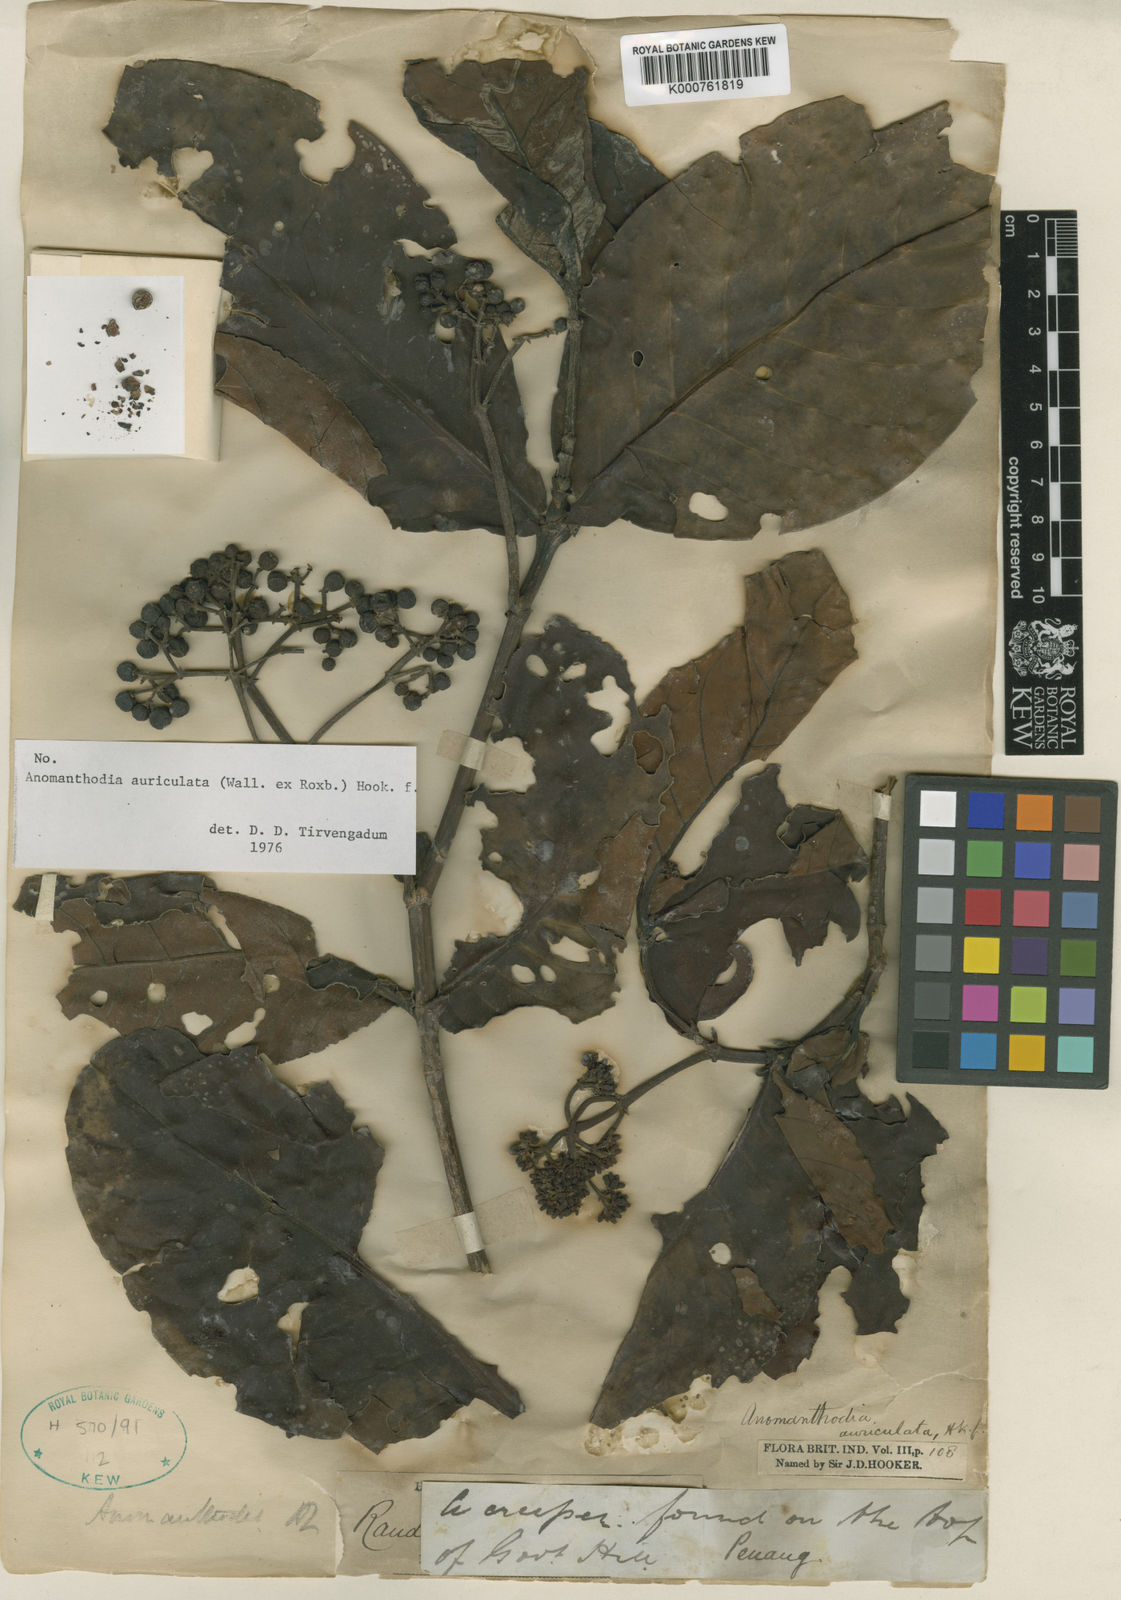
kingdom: Plantae
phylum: Tracheophyta
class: Magnoliopsida
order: Gentianales
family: Rubiaceae
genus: Aidia
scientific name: Aidia auriculata
